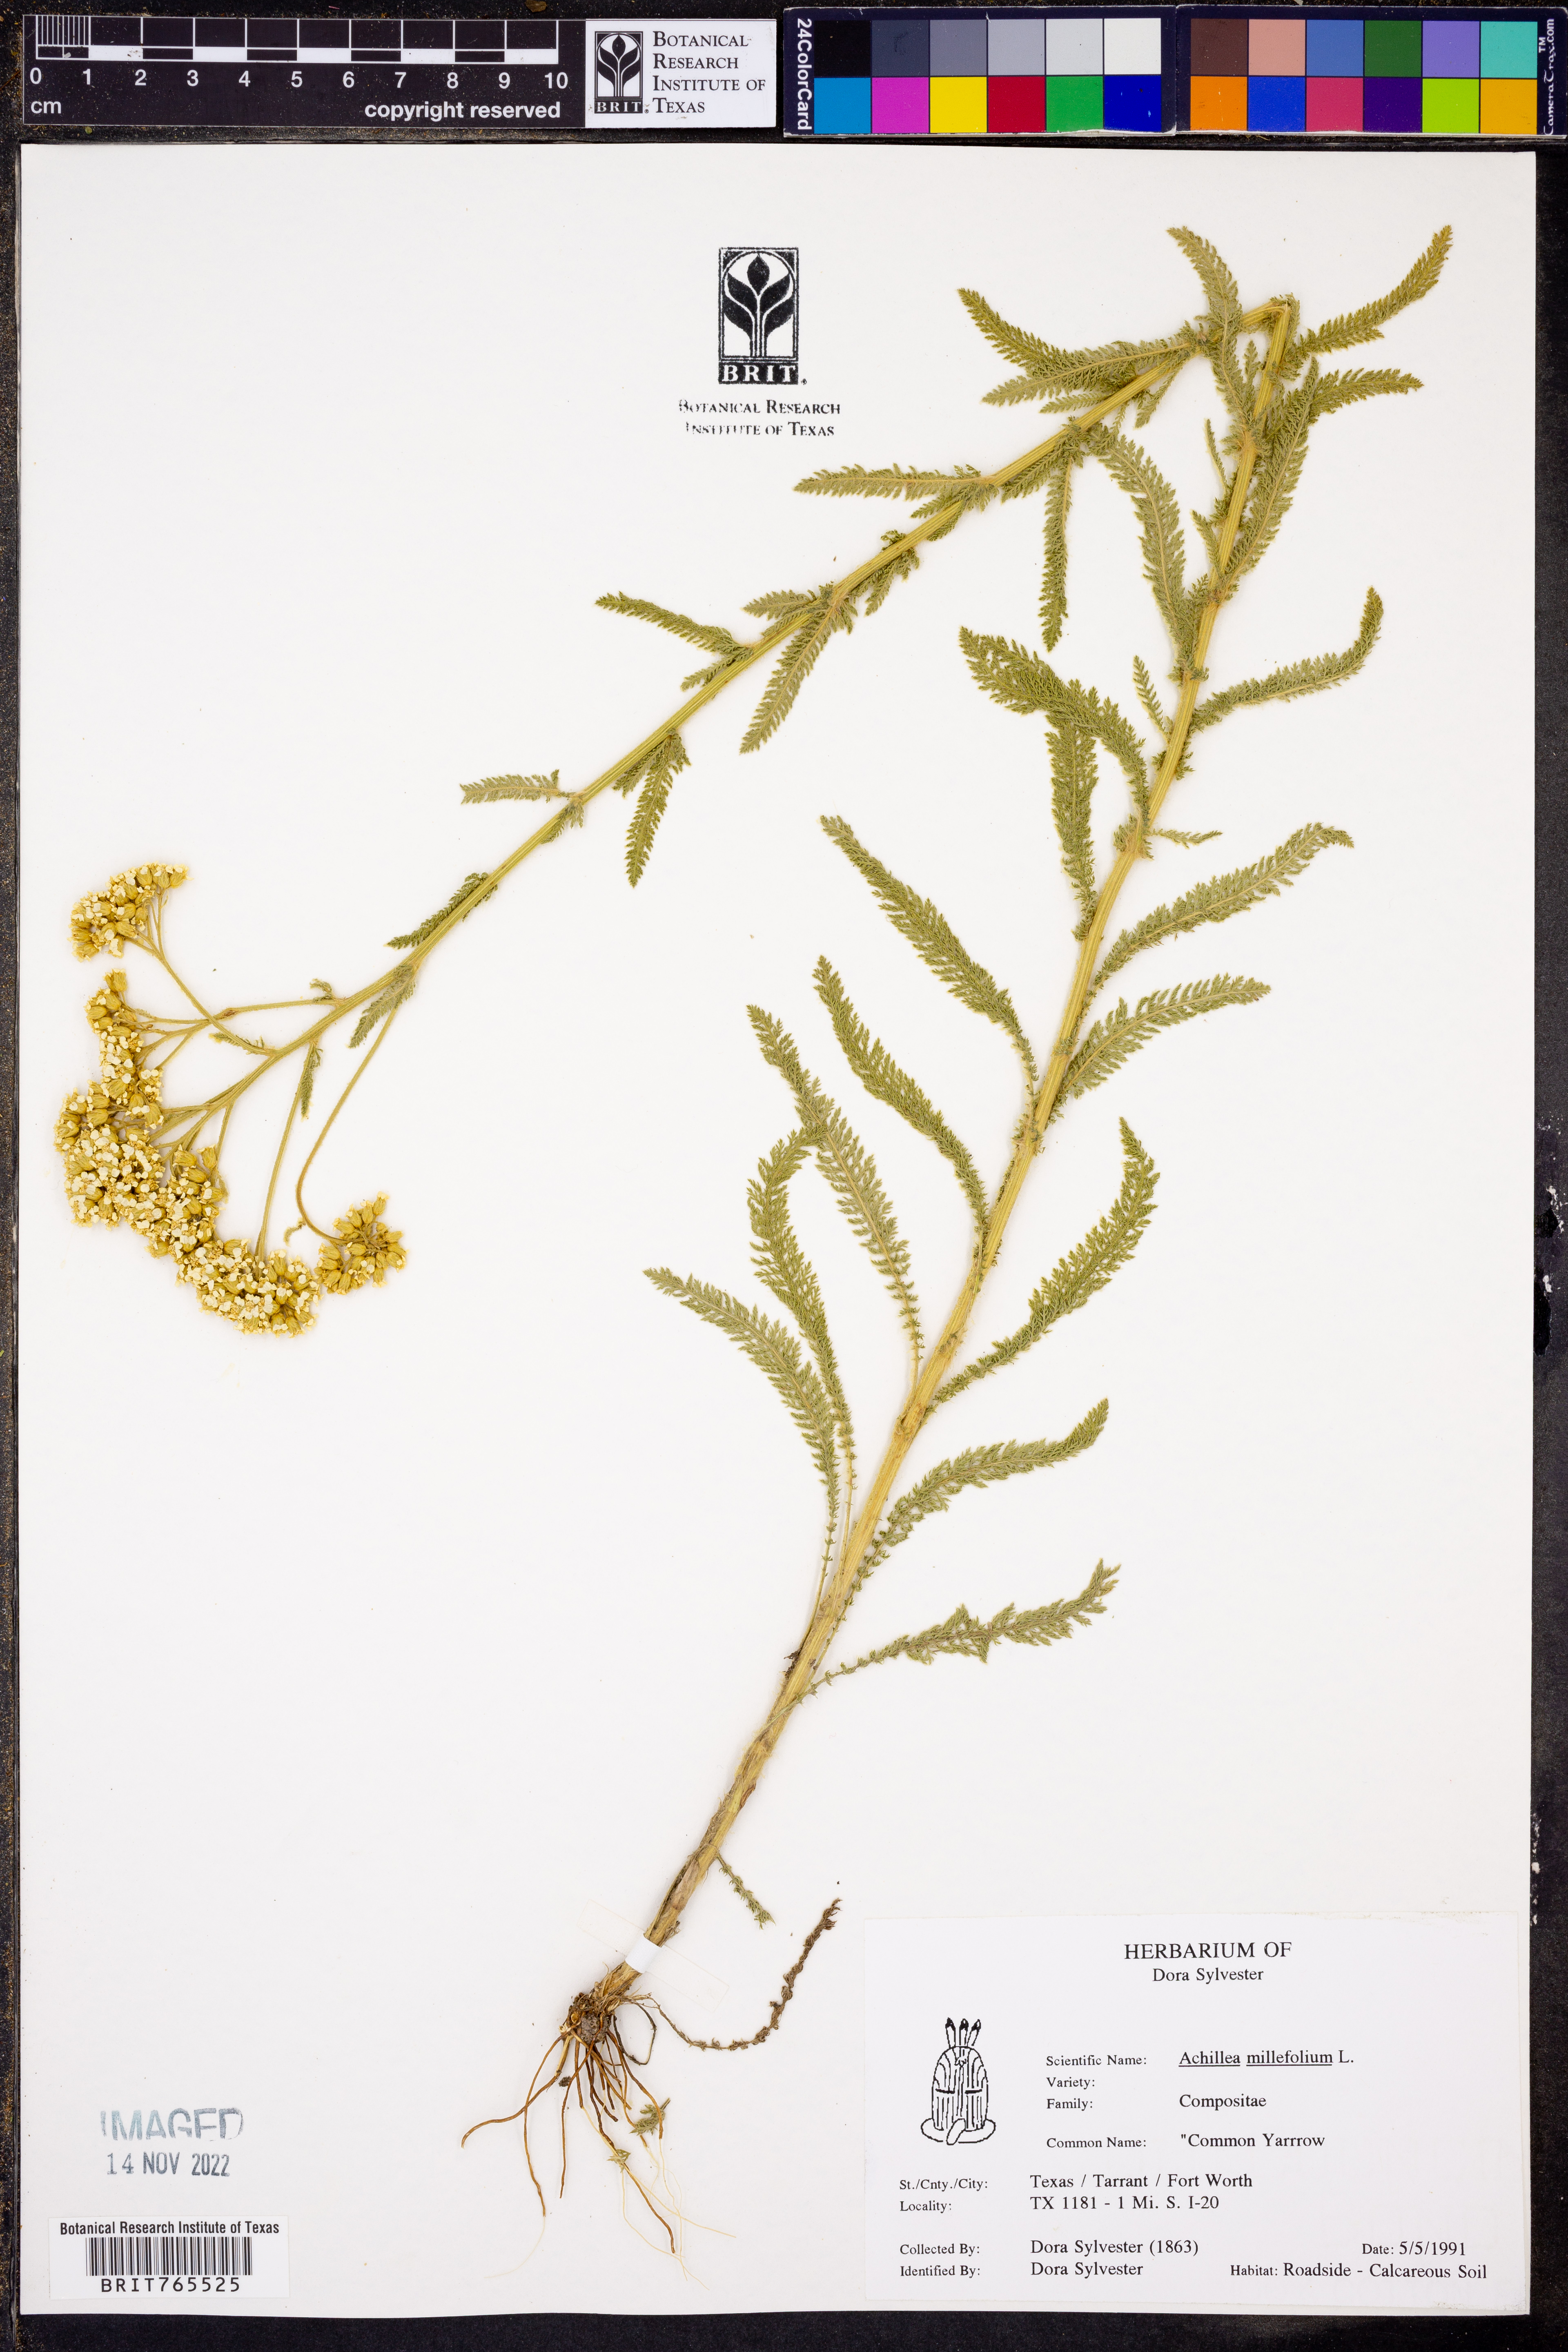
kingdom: Plantae
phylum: Tracheophyta
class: Magnoliopsida
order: Asterales
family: Asteraceae
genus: Achillea
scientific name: Achillea millefolium
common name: Yarrow
